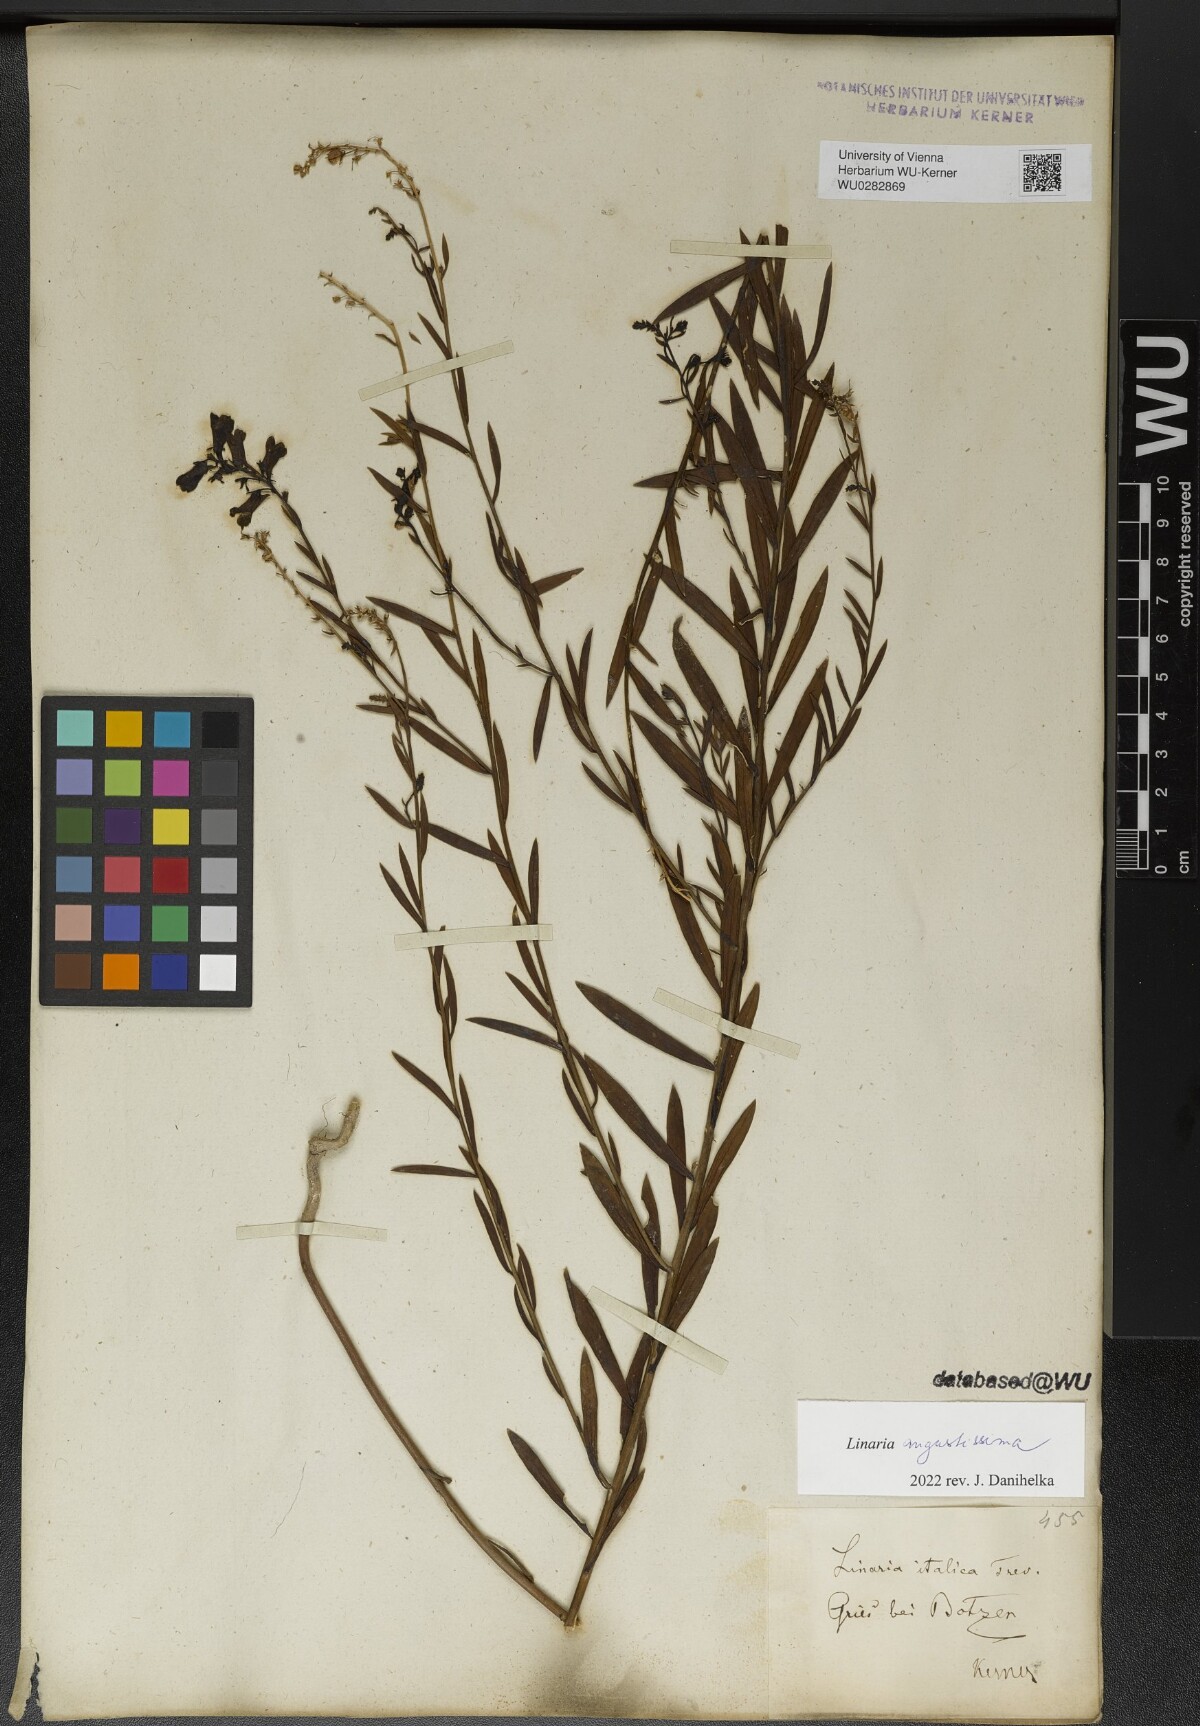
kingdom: Plantae
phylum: Tracheophyta
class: Magnoliopsida
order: Lamiales
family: Plantaginaceae
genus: Linaria
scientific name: Linaria angustissima
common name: Italian toadflax
